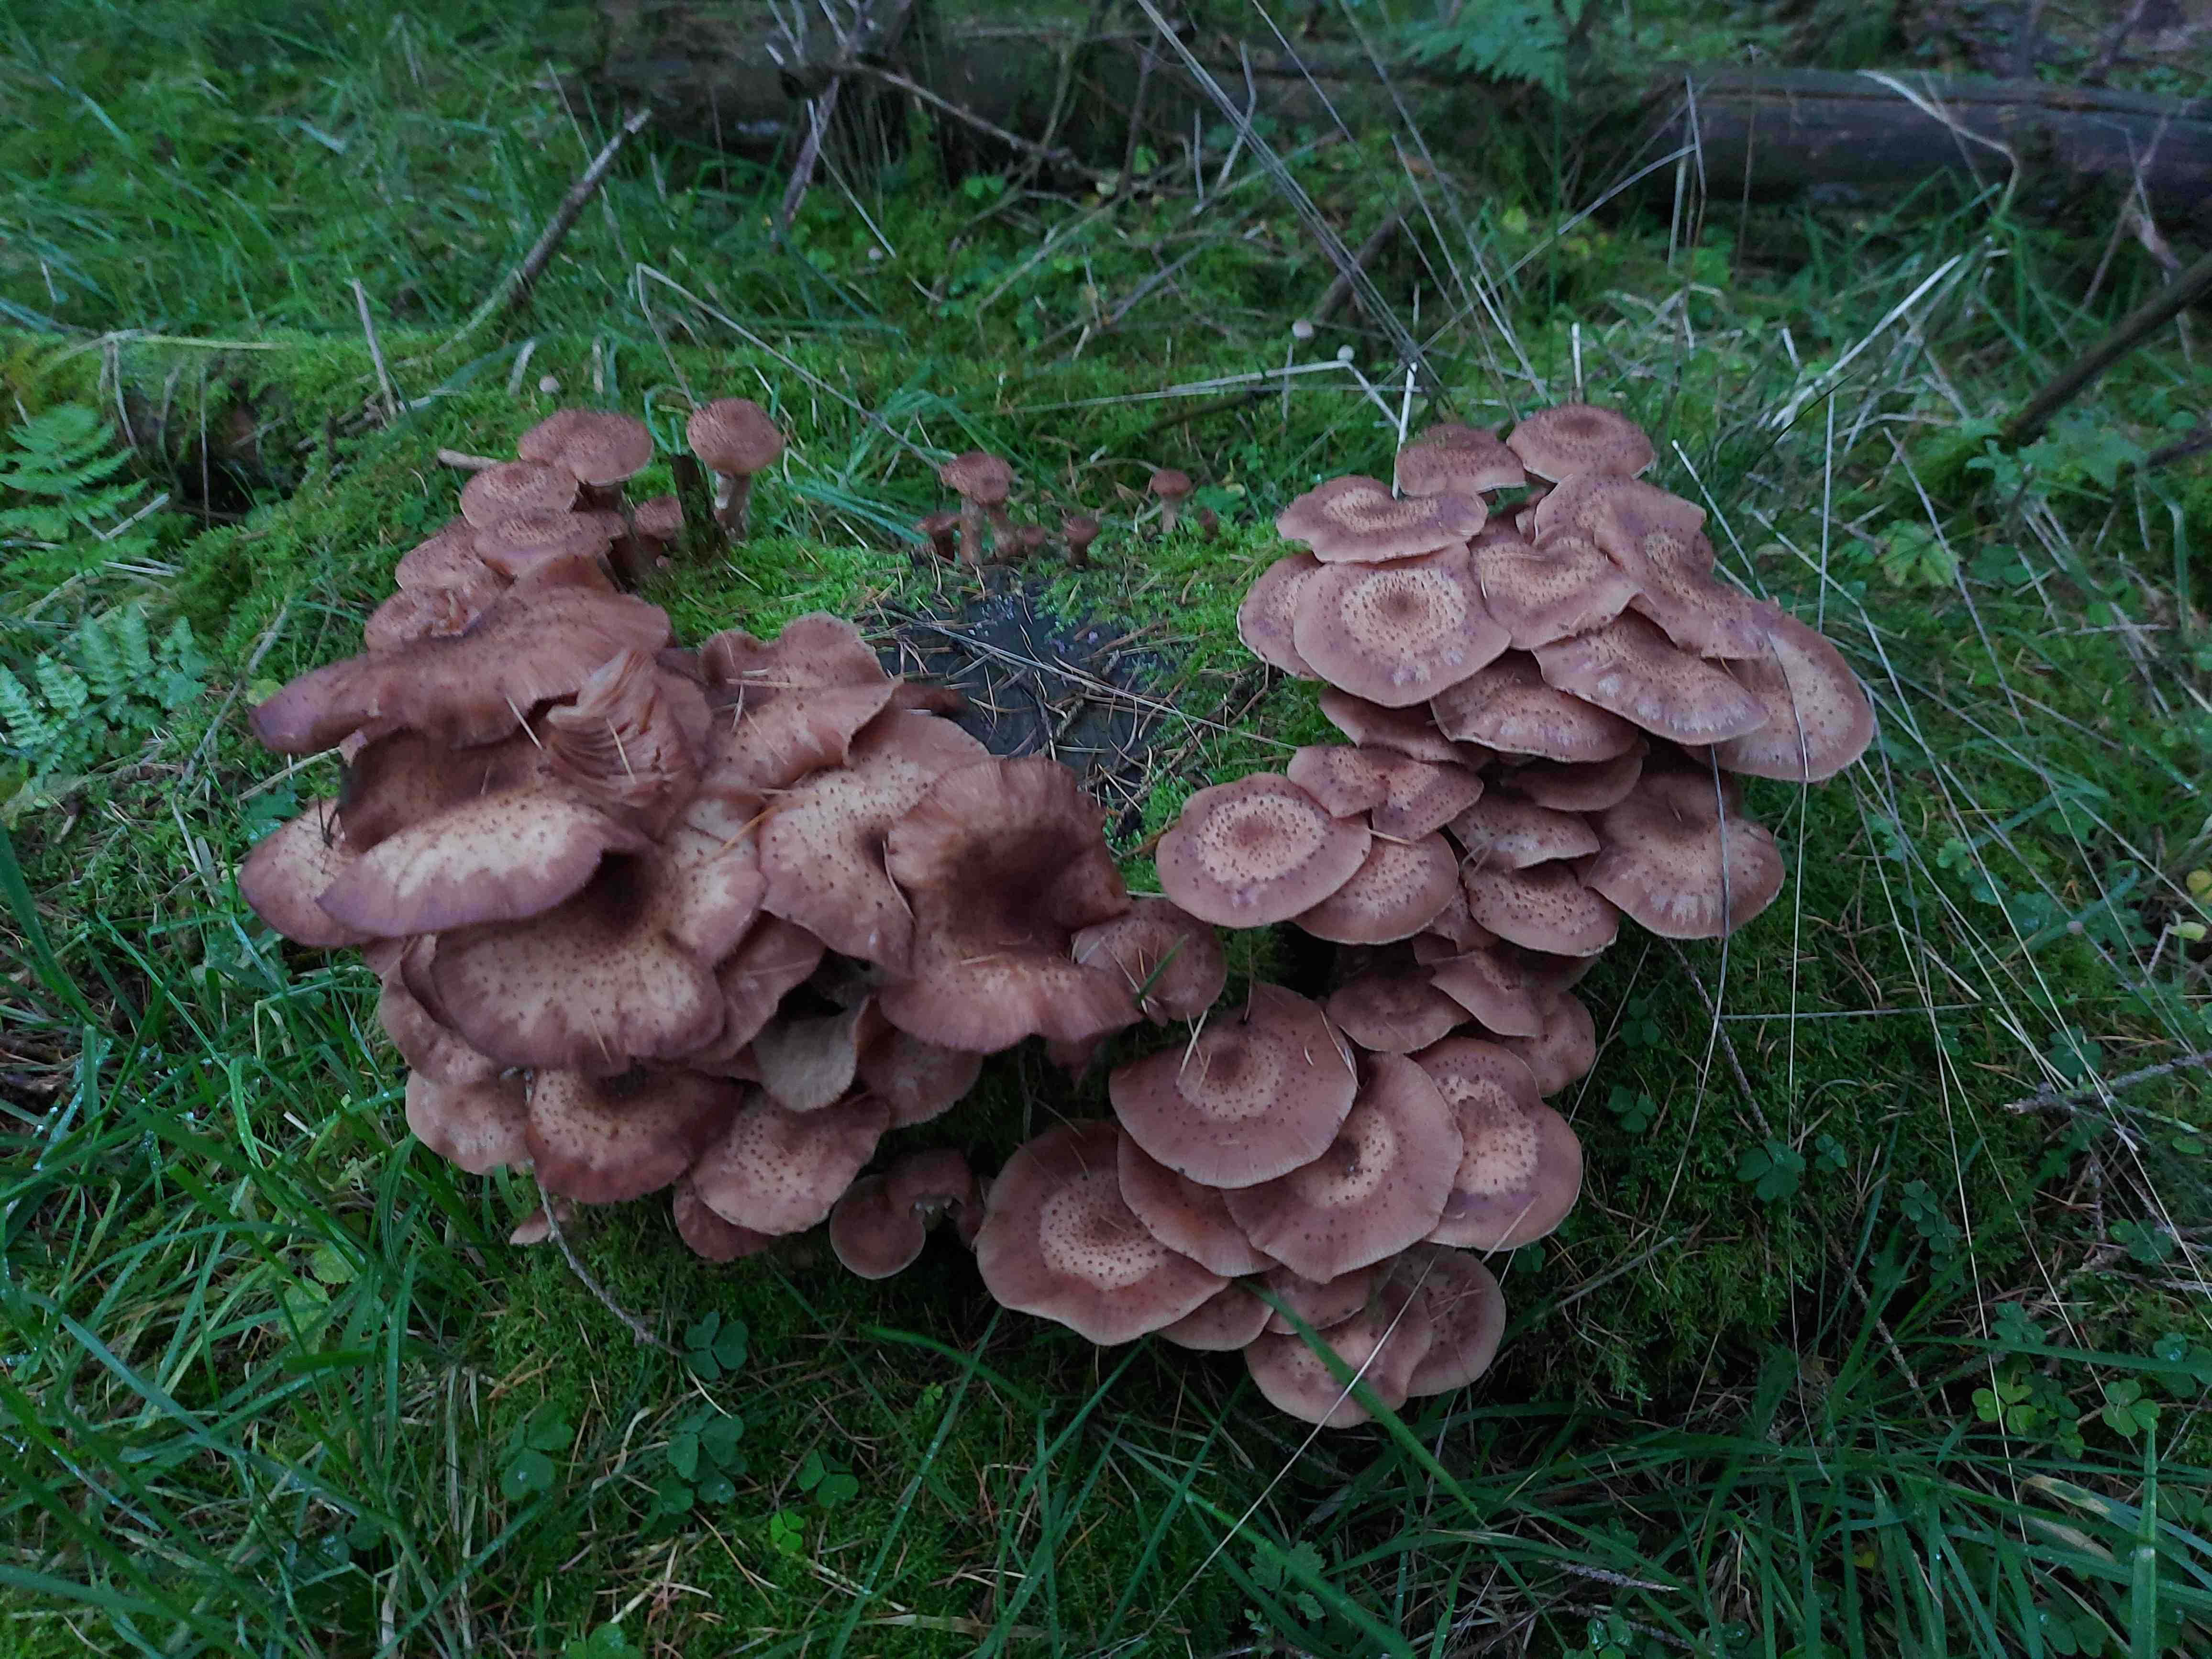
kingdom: Fungi
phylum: Basidiomycota
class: Agaricomycetes
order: Agaricales
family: Physalacriaceae
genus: Armillaria
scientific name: Armillaria ostoyae
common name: mørk honningsvamp
